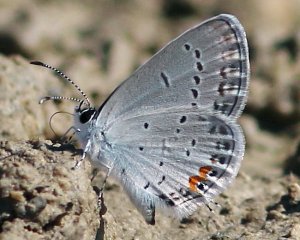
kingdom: Animalia
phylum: Arthropoda
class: Insecta
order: Lepidoptera
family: Lycaenidae
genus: Elkalyce
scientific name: Elkalyce comyntas
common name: Eastern Tailed-Blue
